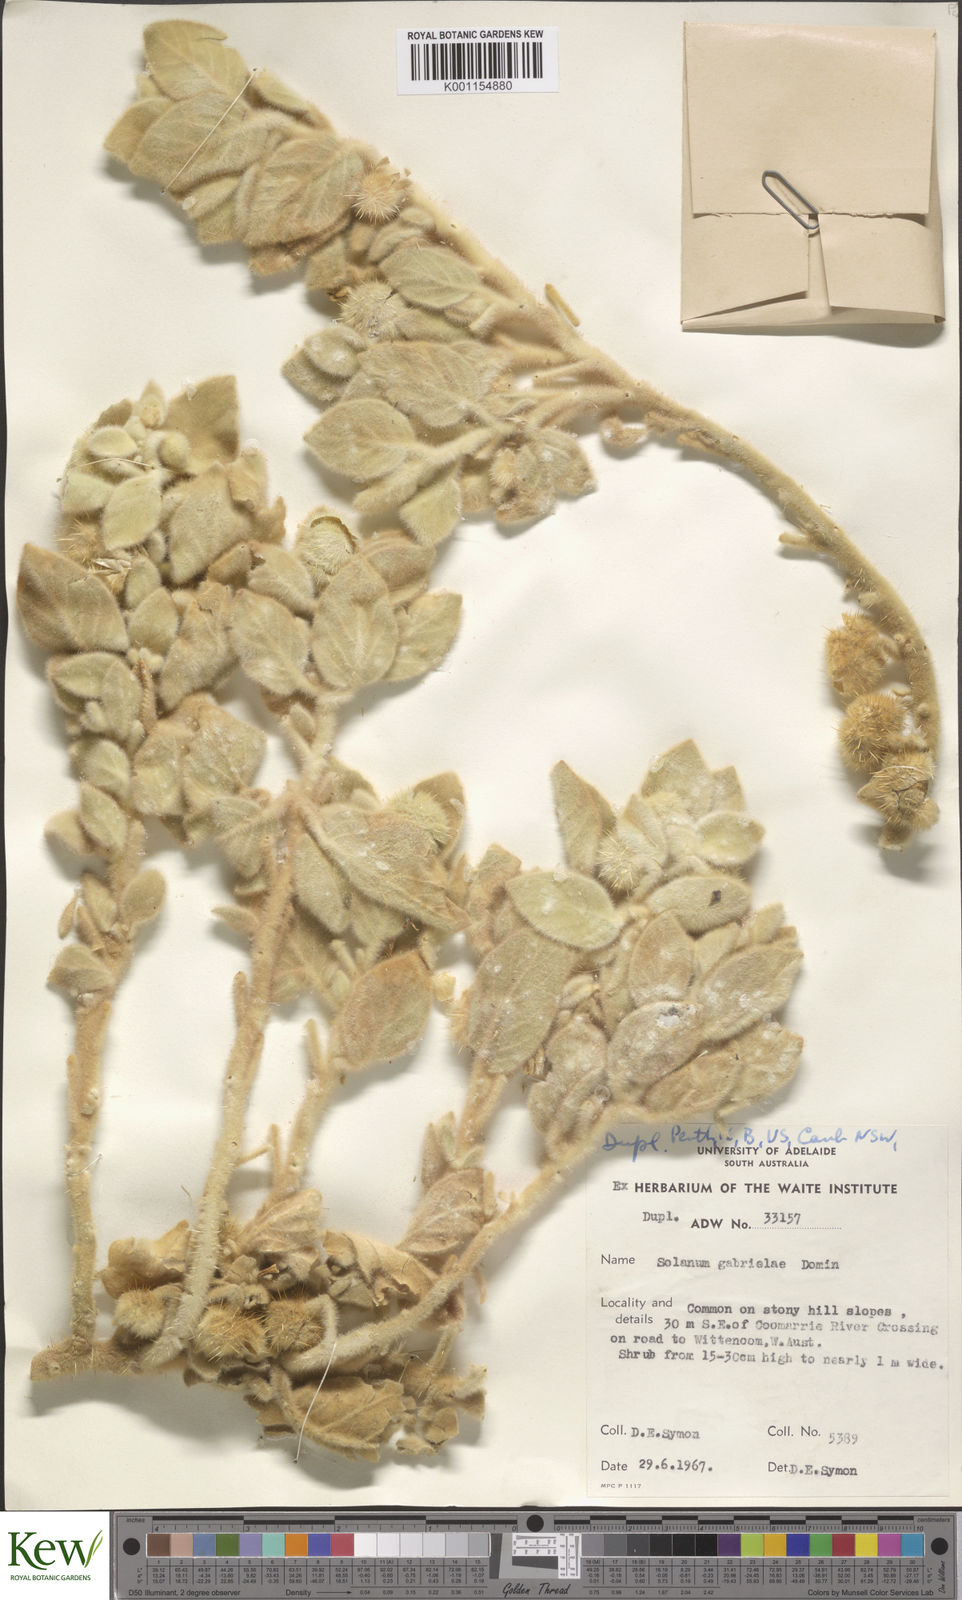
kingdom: Plantae
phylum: Tracheophyta
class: Magnoliopsida
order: Solanales
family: Solanaceae
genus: Solanum
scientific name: Solanum gabrielae
